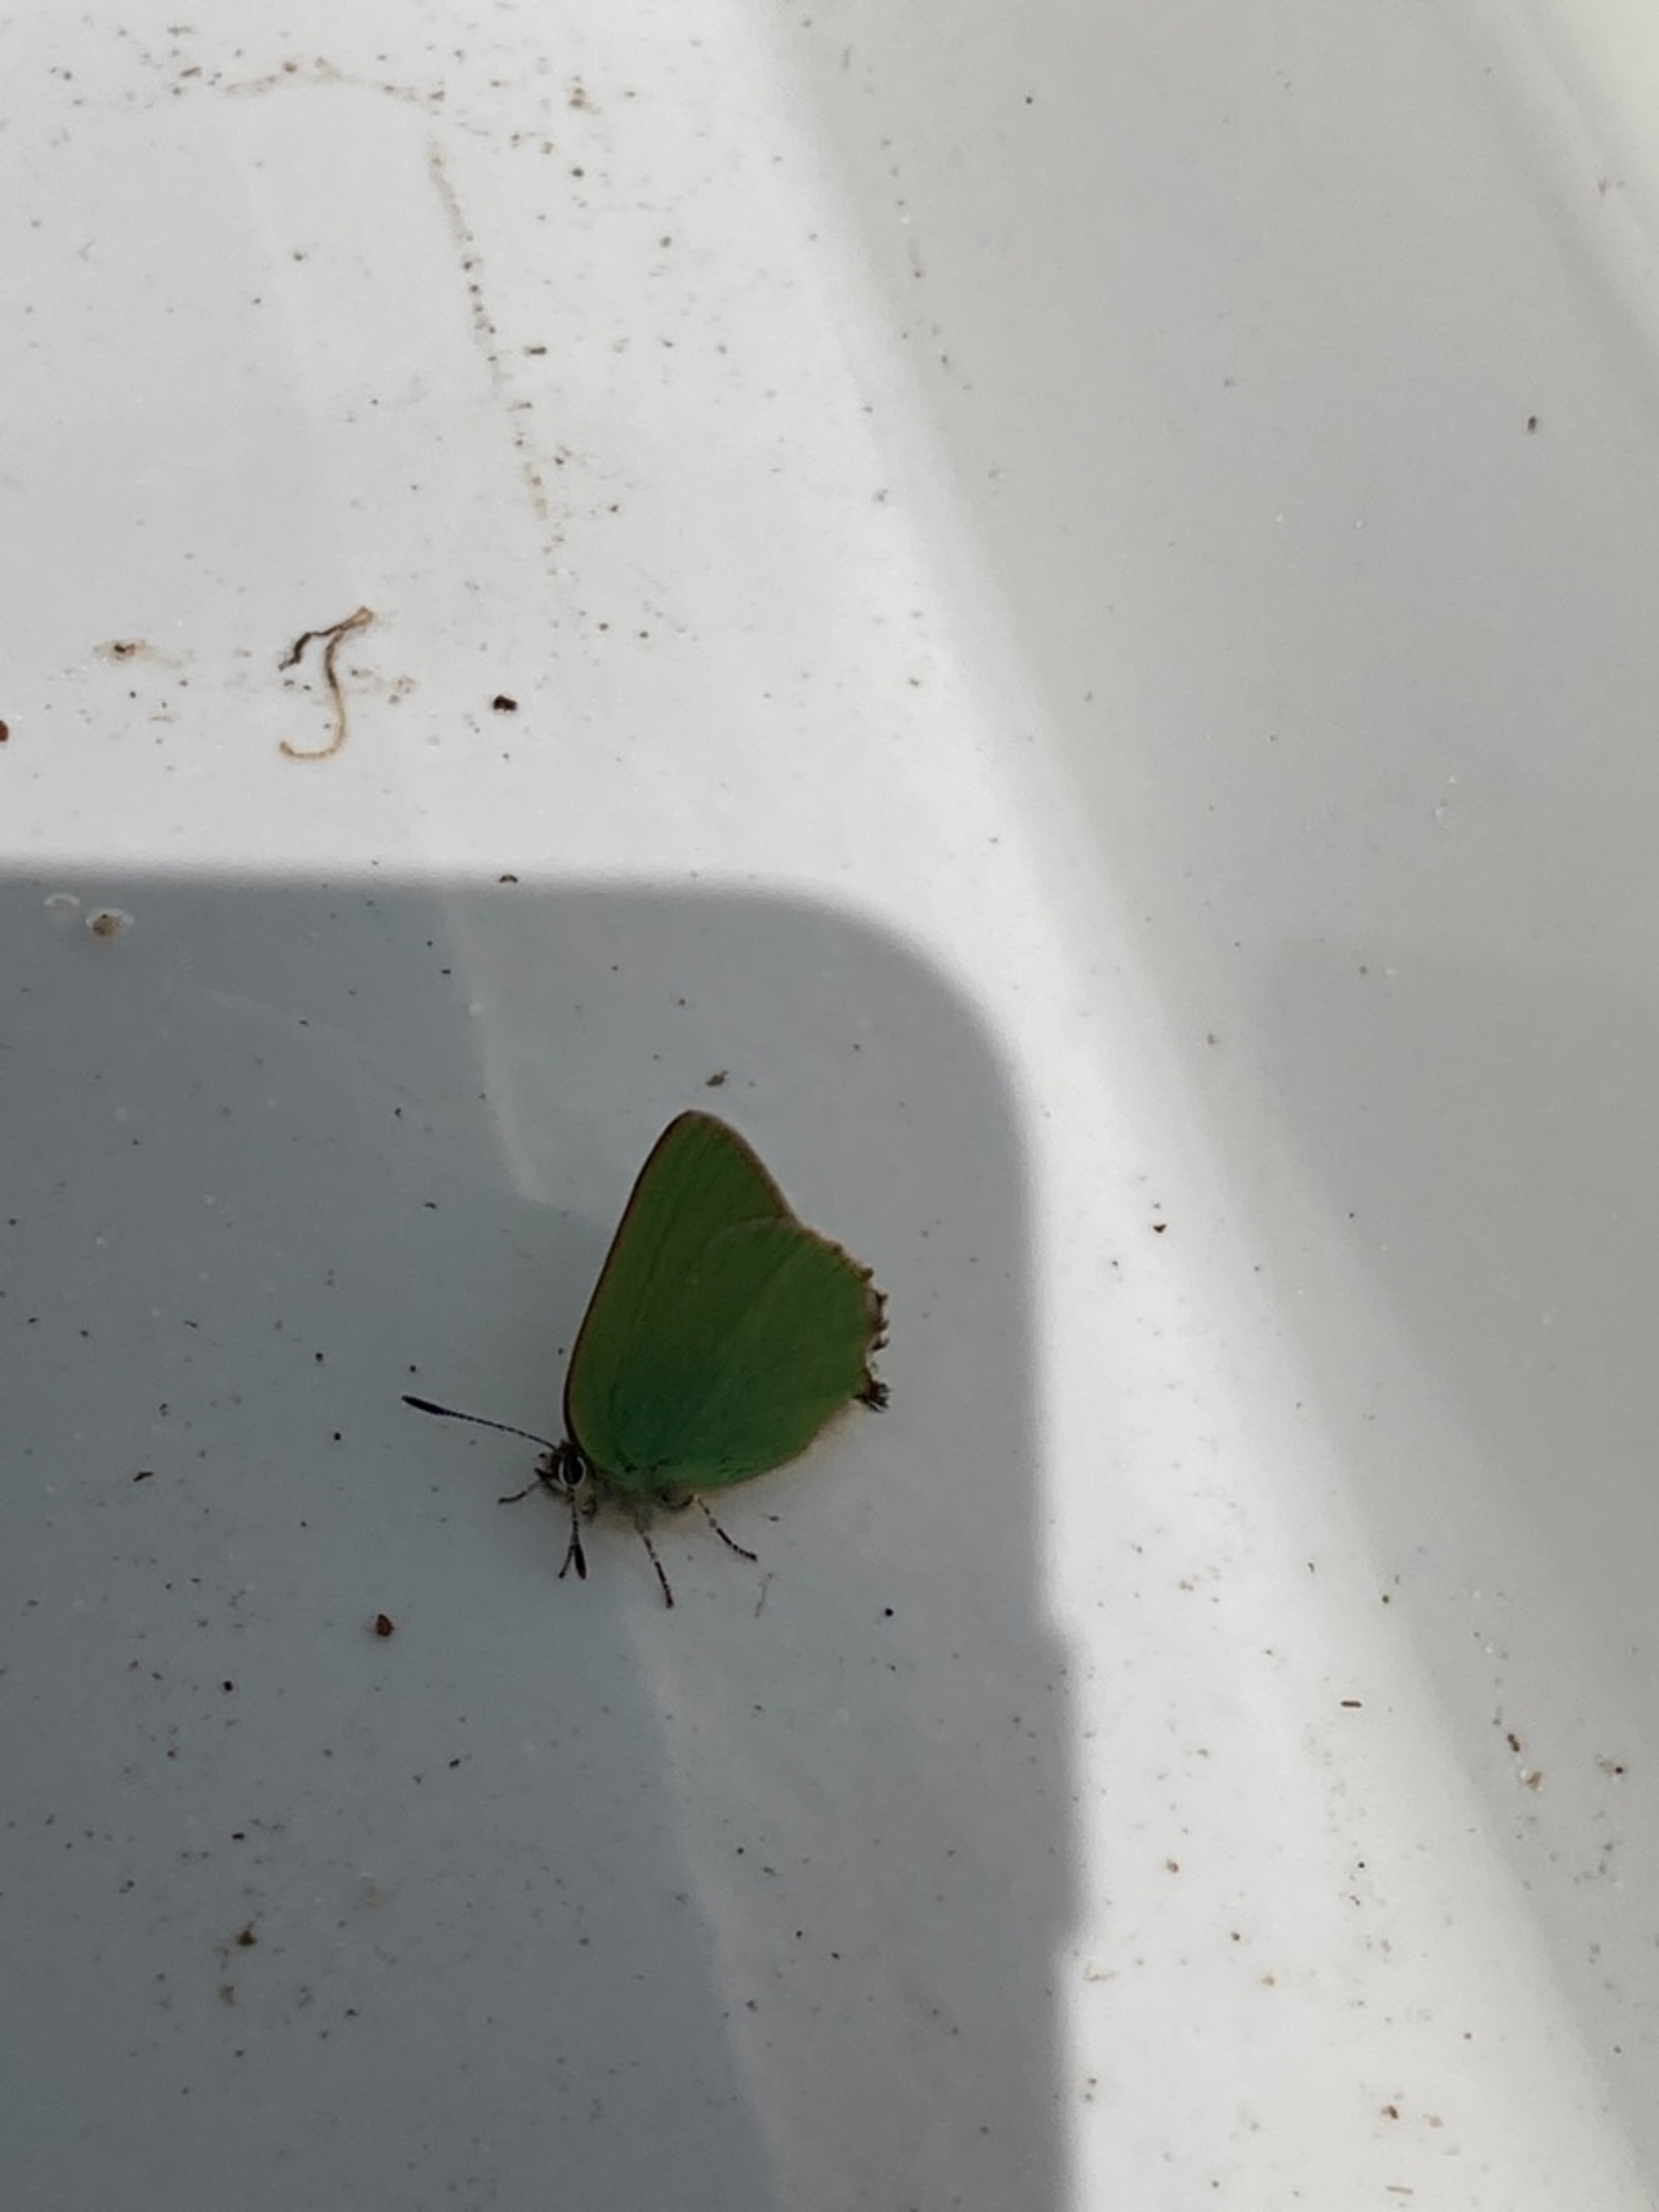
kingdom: Animalia
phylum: Arthropoda
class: Insecta
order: Lepidoptera
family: Lycaenidae
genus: Callophrys
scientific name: Callophrys rubi
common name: Grøn busksommerfugl
